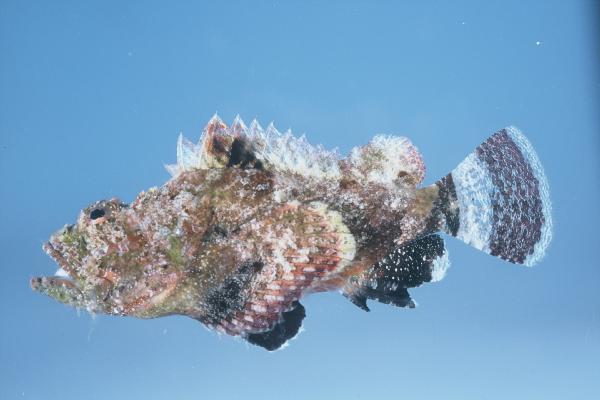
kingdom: Animalia
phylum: Chordata
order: Scorpaeniformes
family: Scorpaenidae
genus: Scorpaenopsis
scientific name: Scorpaenopsis gibbosa
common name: Humpback scorpionfish
